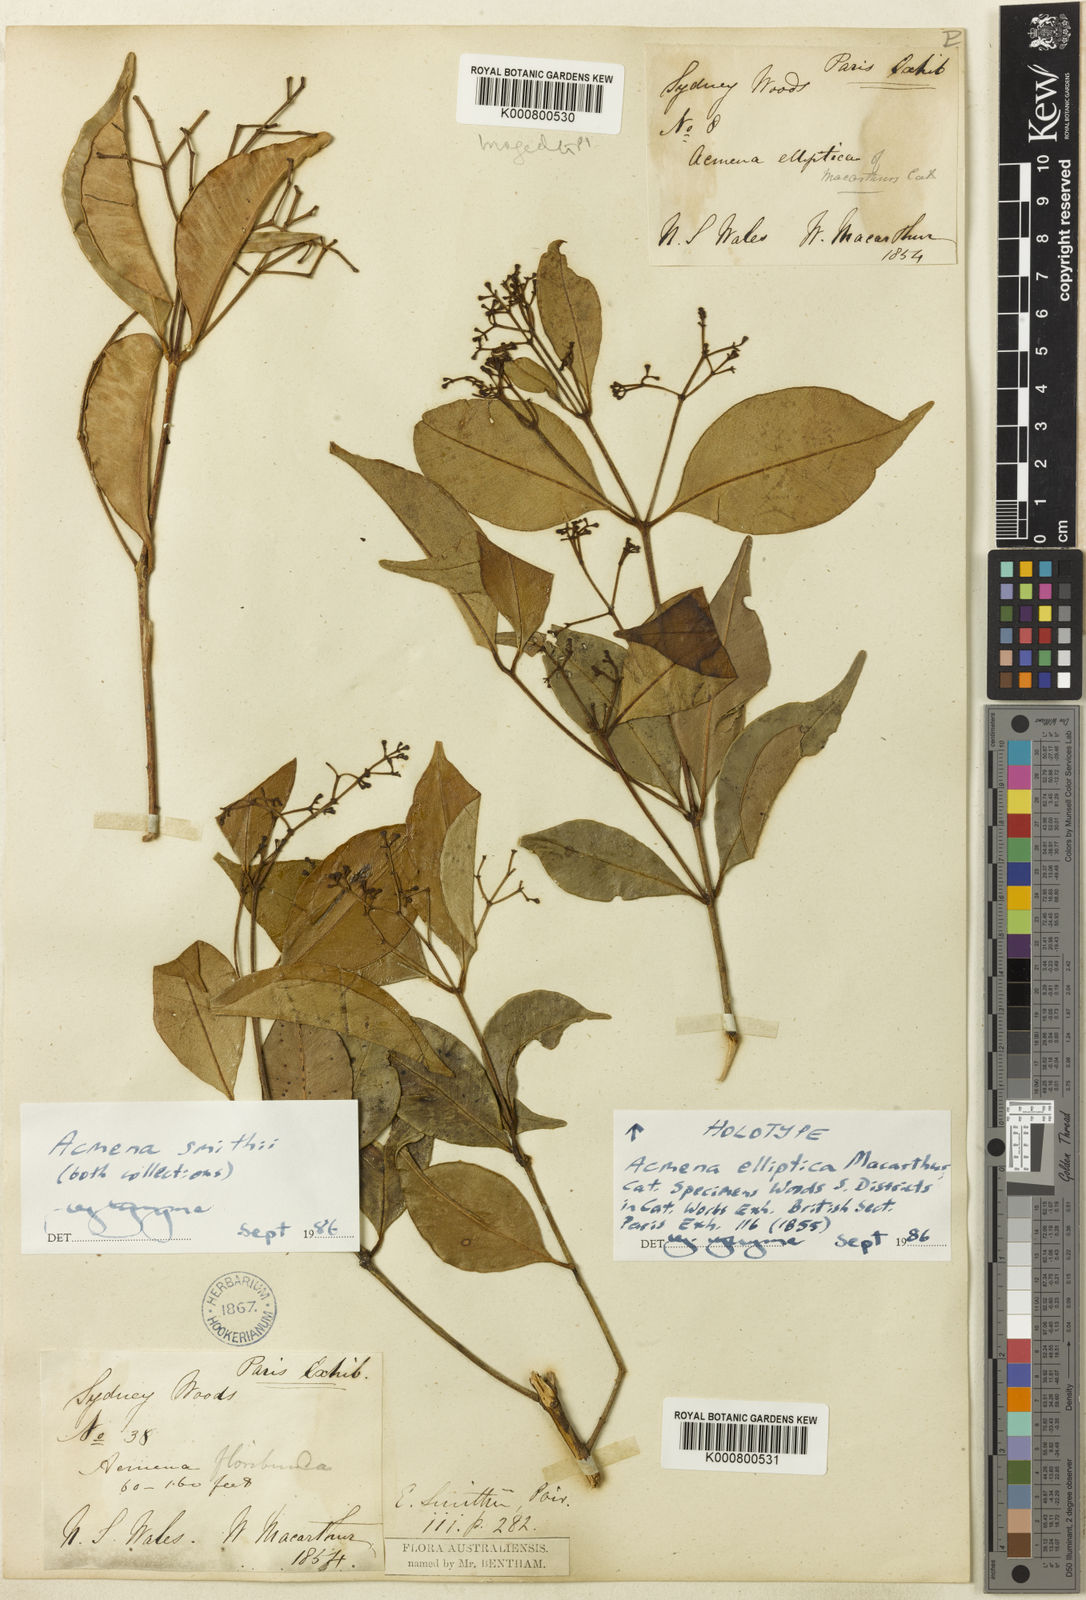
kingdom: Plantae
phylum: Tracheophyta
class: Magnoliopsida
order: Myrtales
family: Myrtaceae
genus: Syzygium
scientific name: Syzygium smithii
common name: Lilly-pilly
